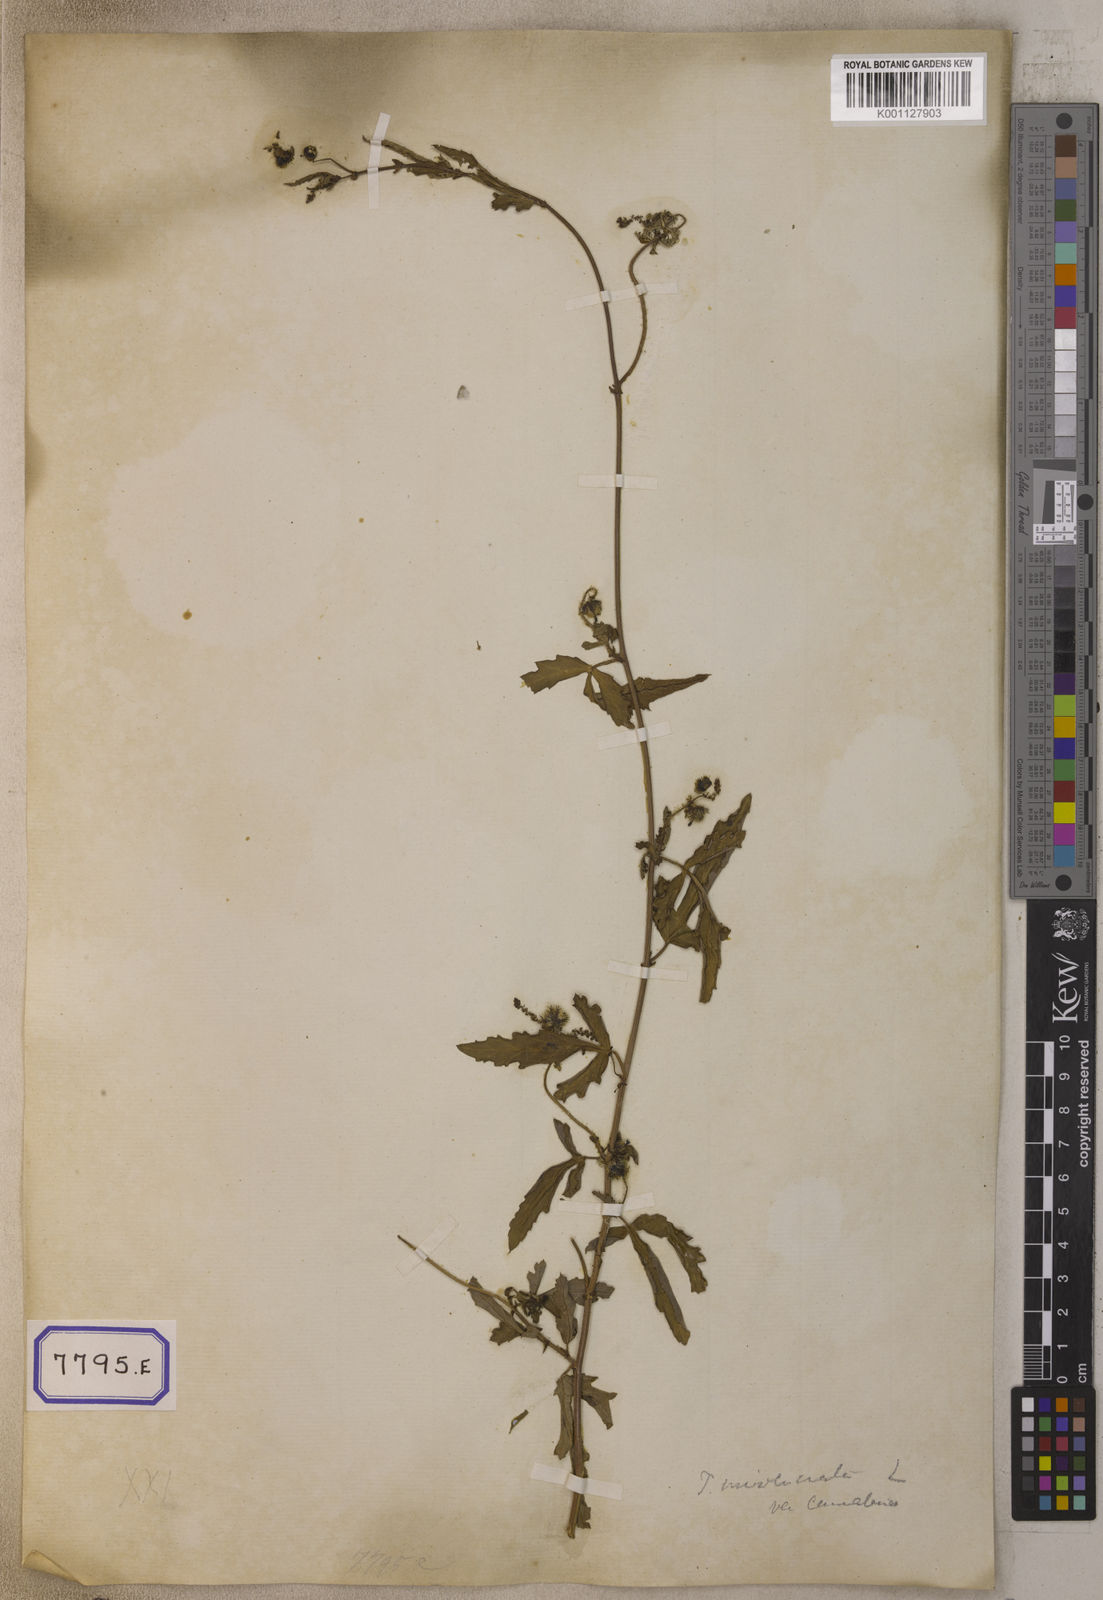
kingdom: Plantae
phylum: Tracheophyta
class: Magnoliopsida
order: Malpighiales
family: Euphorbiaceae
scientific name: Euphorbiaceae
